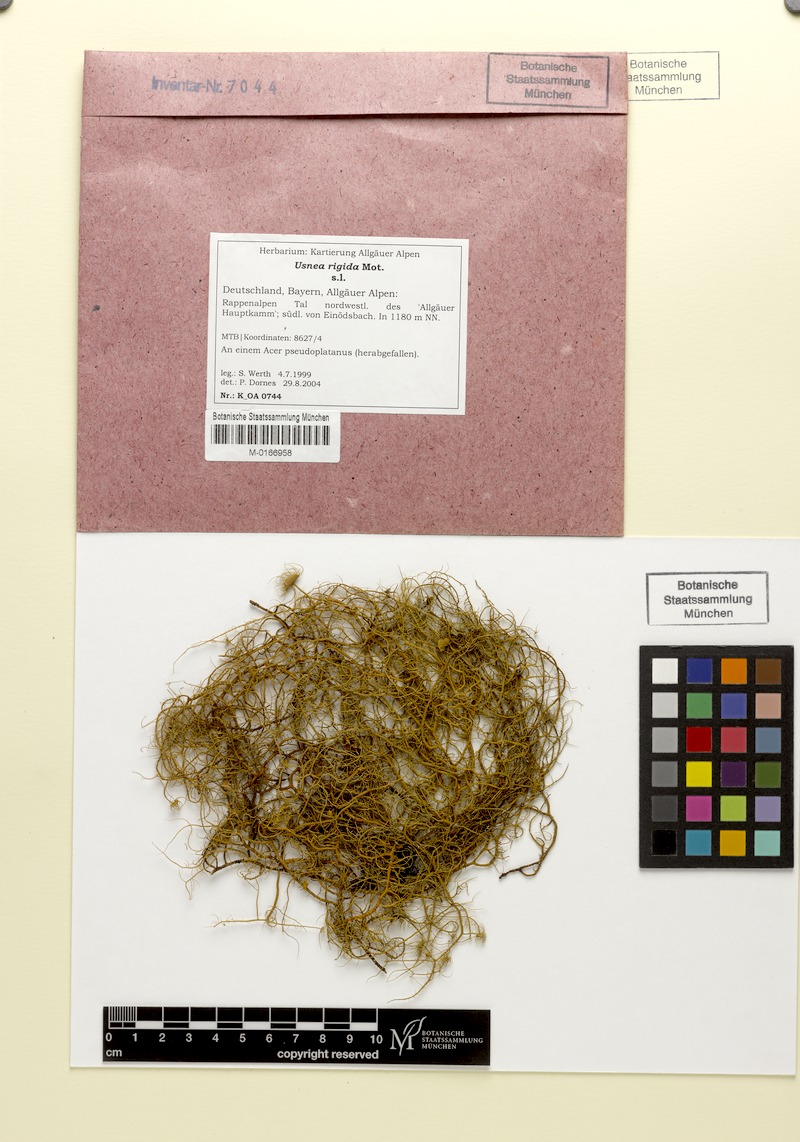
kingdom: Fungi
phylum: Ascomycota
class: Lecanoromycetes
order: Lecanorales
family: Parmeliaceae
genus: Usnea
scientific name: Usnea quasirigida
